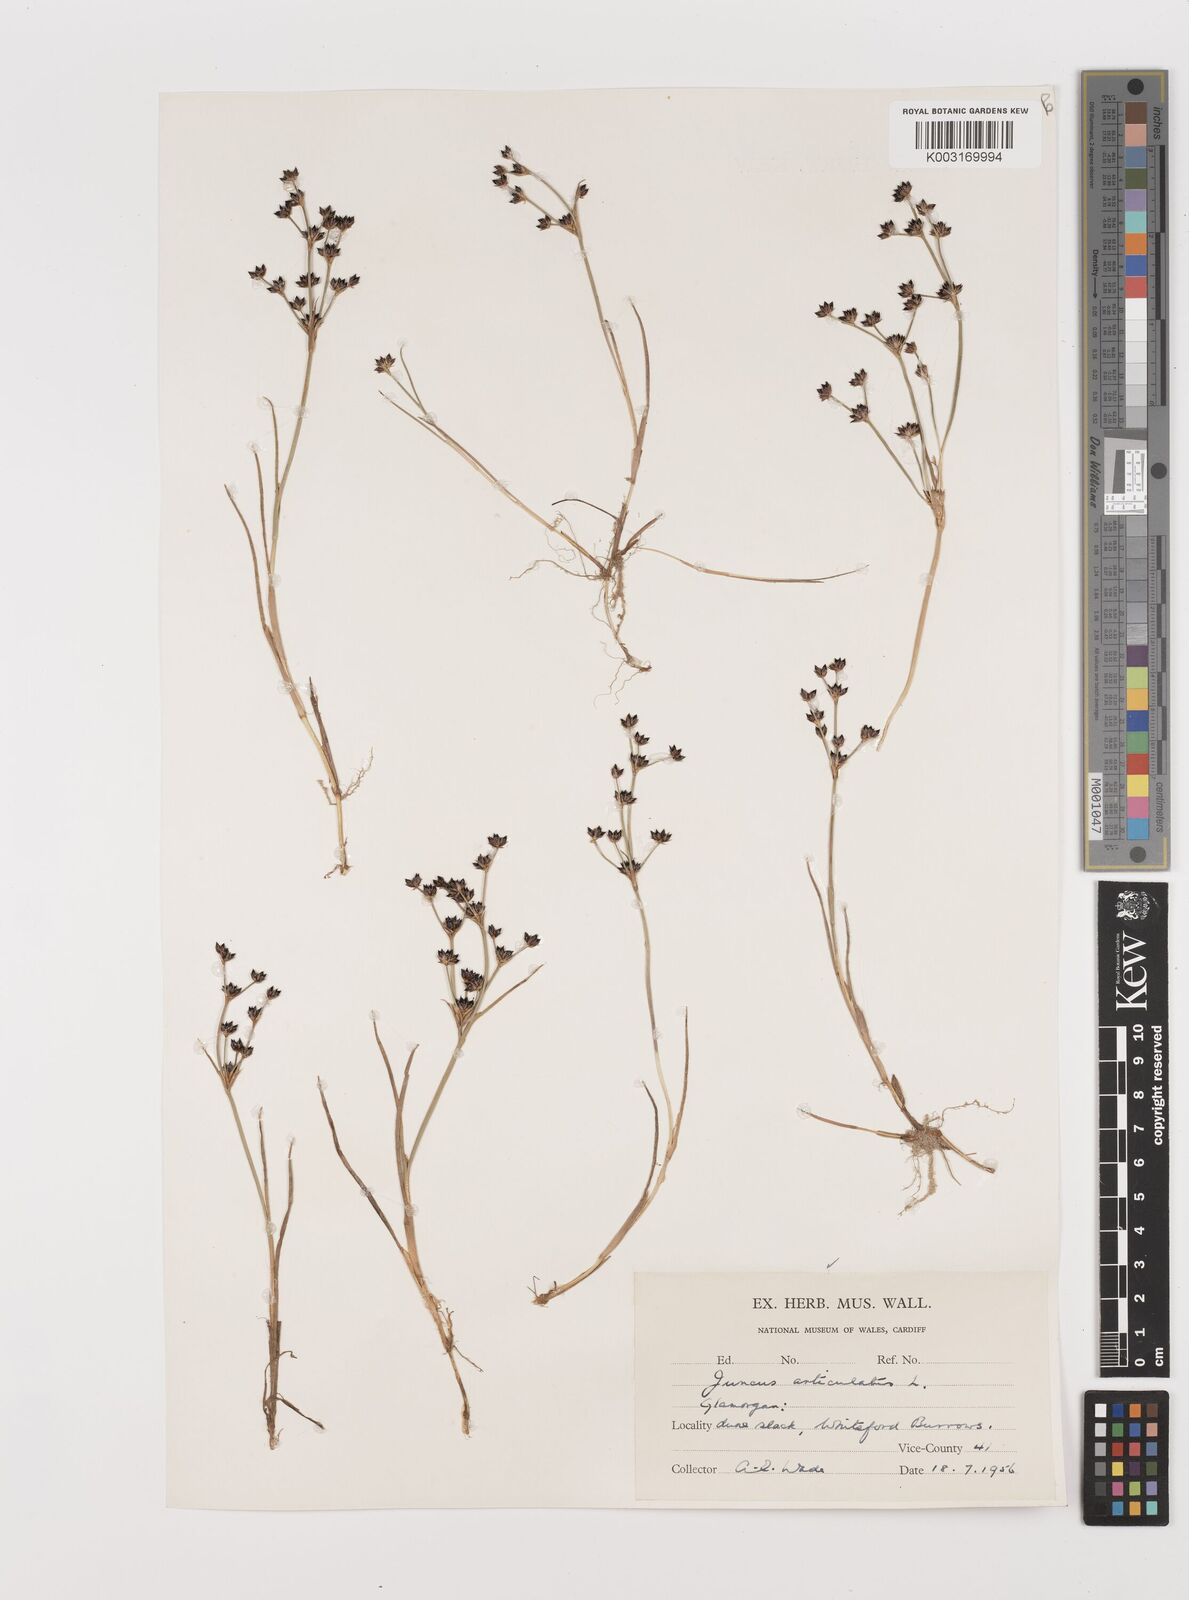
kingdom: Plantae
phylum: Tracheophyta
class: Liliopsida
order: Poales
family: Juncaceae
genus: Juncus
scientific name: Juncus articulatus
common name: Jointed rush
